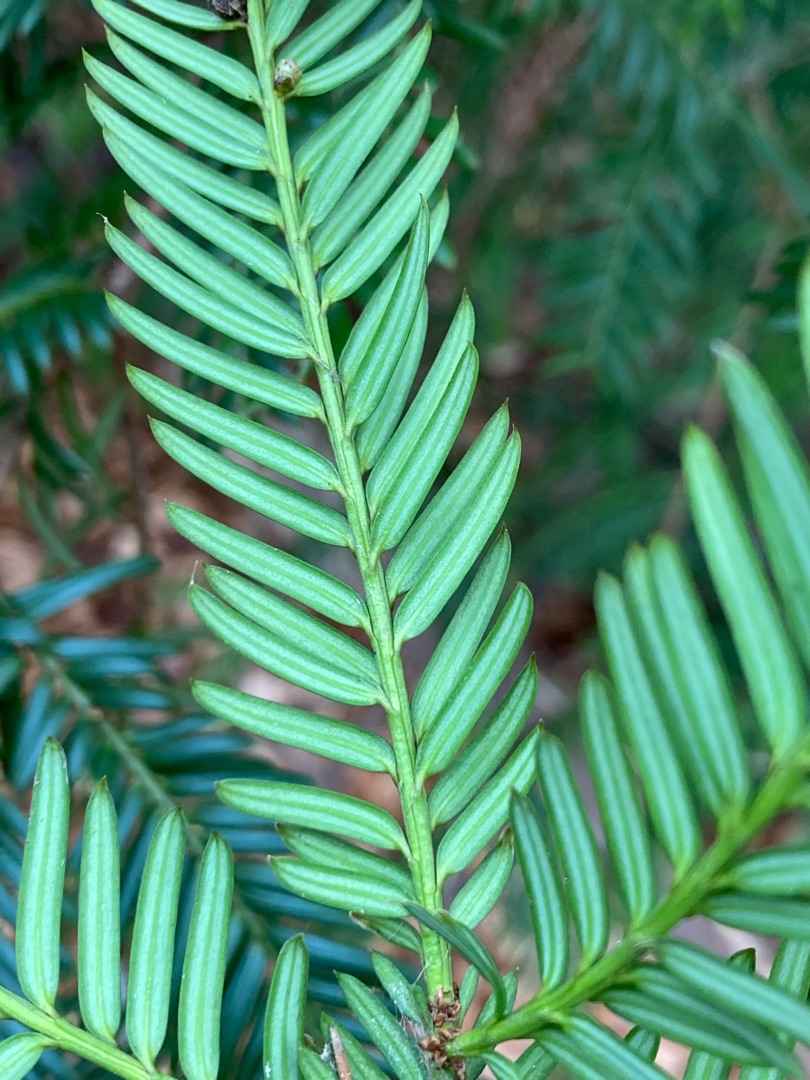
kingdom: Plantae
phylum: Tracheophyta
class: Pinopsida
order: Pinales
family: Taxaceae
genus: Taxus
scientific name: Taxus baccata
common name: Almindelig taks
